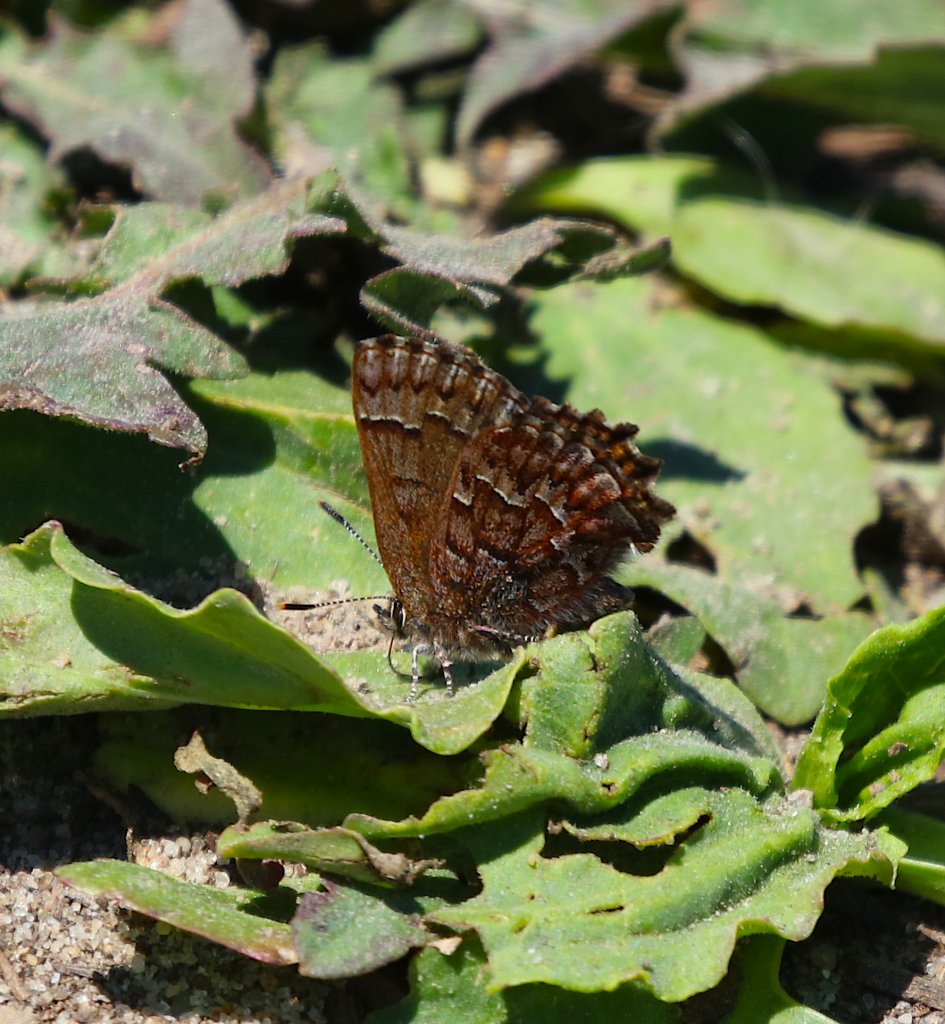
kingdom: Animalia
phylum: Arthropoda
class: Insecta
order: Lepidoptera
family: Lycaenidae
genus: Incisalia
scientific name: Incisalia niphon
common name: Eastern Pine Elfin
